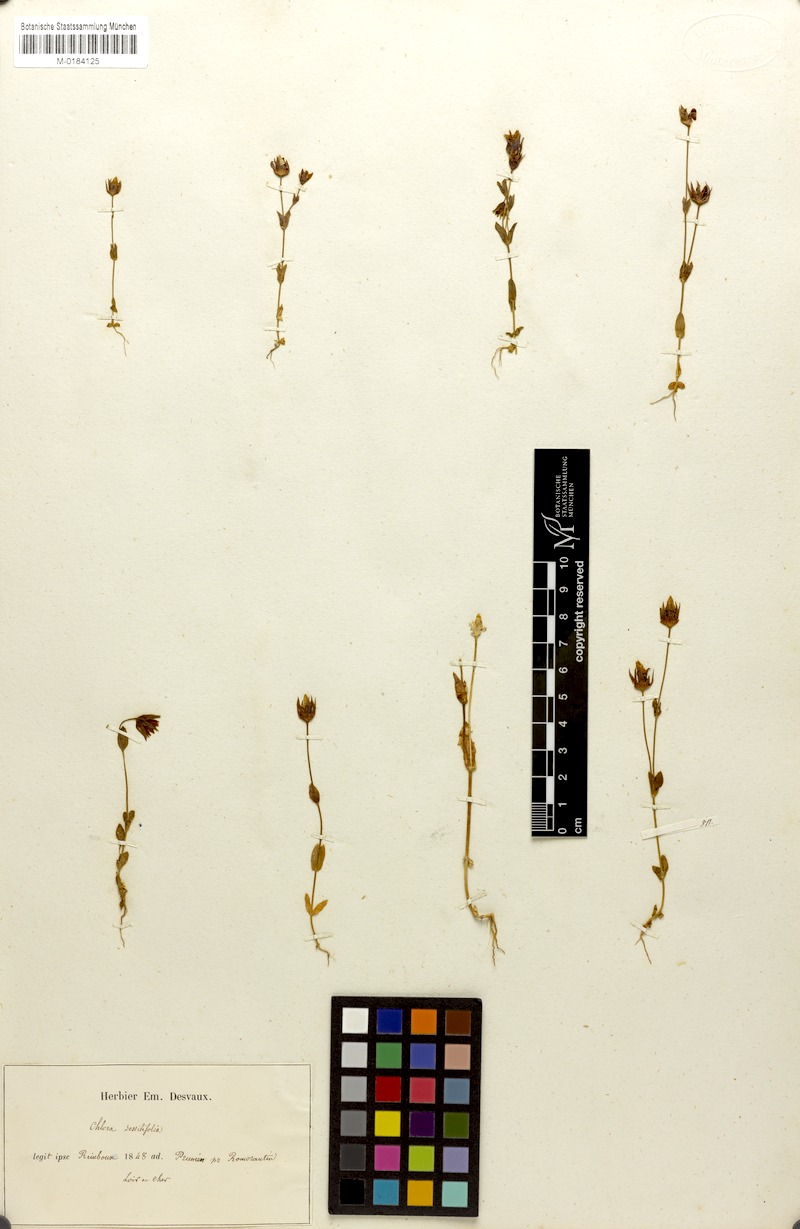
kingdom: Plantae
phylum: Tracheophyta
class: Magnoliopsida
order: Gentianales
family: Gentianaceae
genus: Blackstonia
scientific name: Blackstonia imperfoliata
